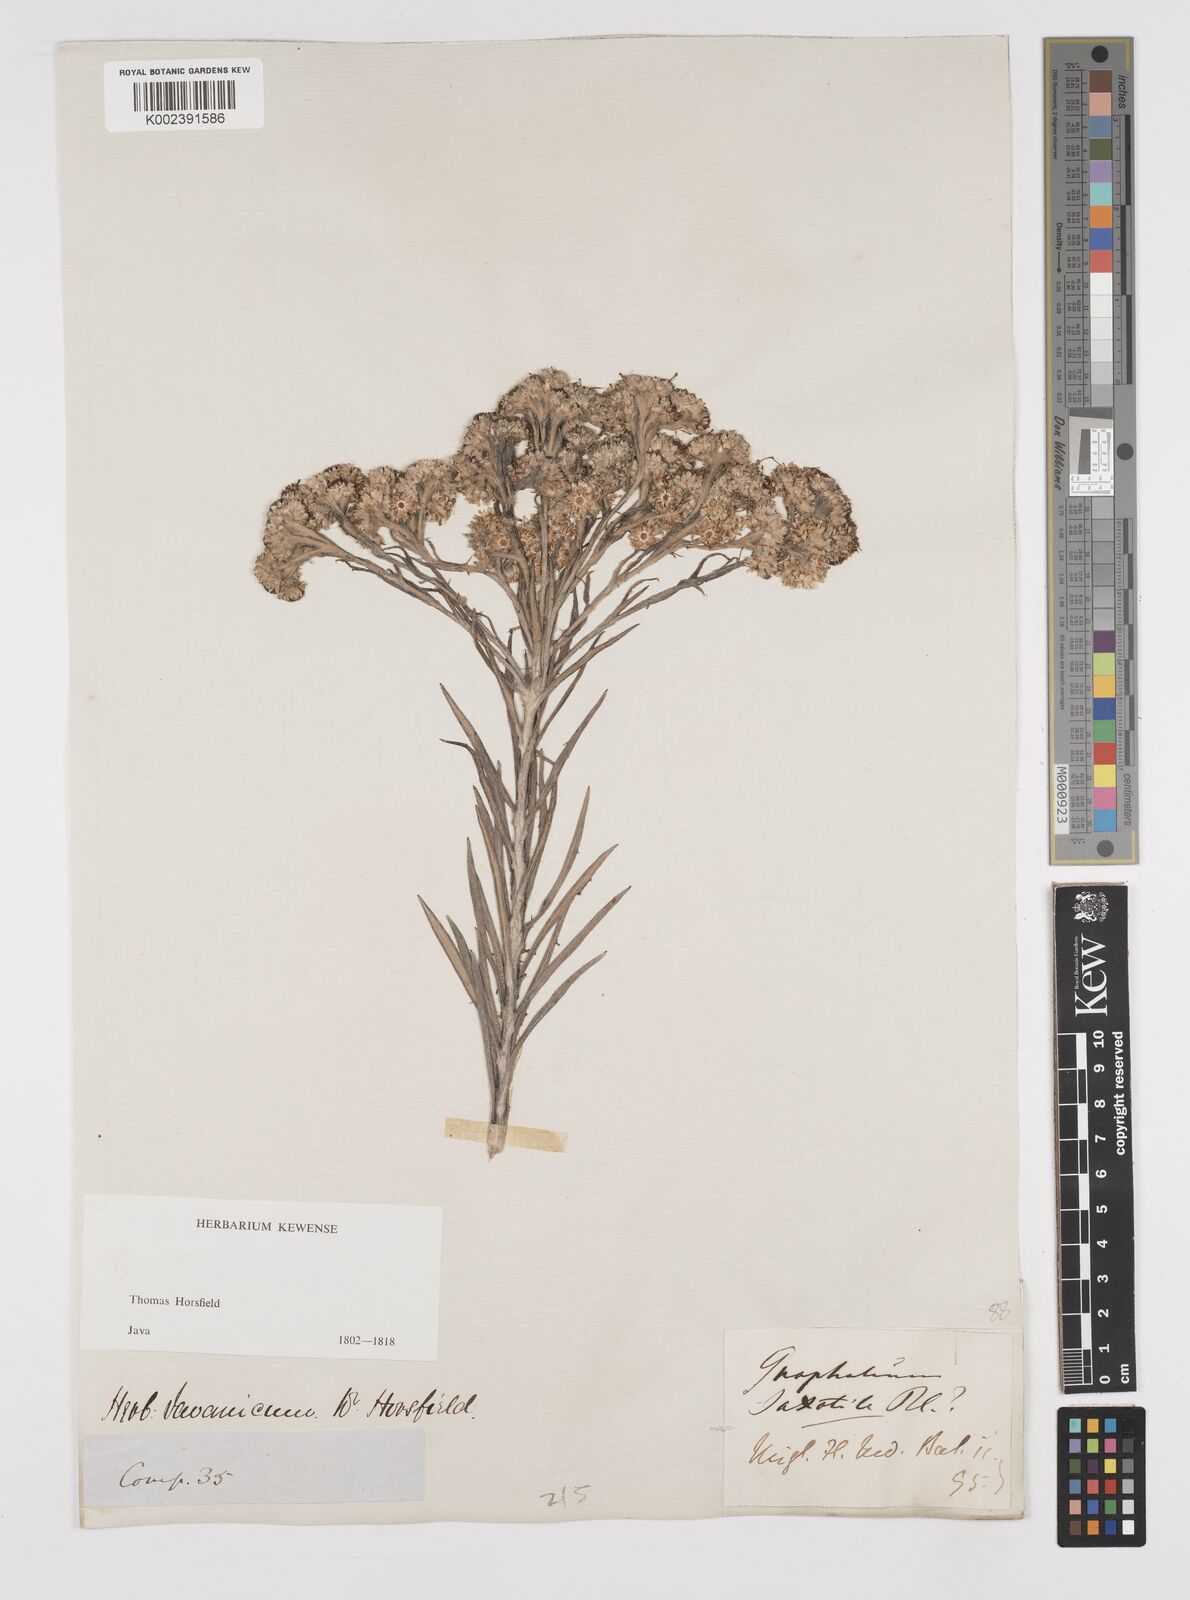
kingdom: Plantae
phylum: Tracheophyta
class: Magnoliopsida
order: Asterales
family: Asteraceae
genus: Anaphalis
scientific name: Anaphalis longifolia
